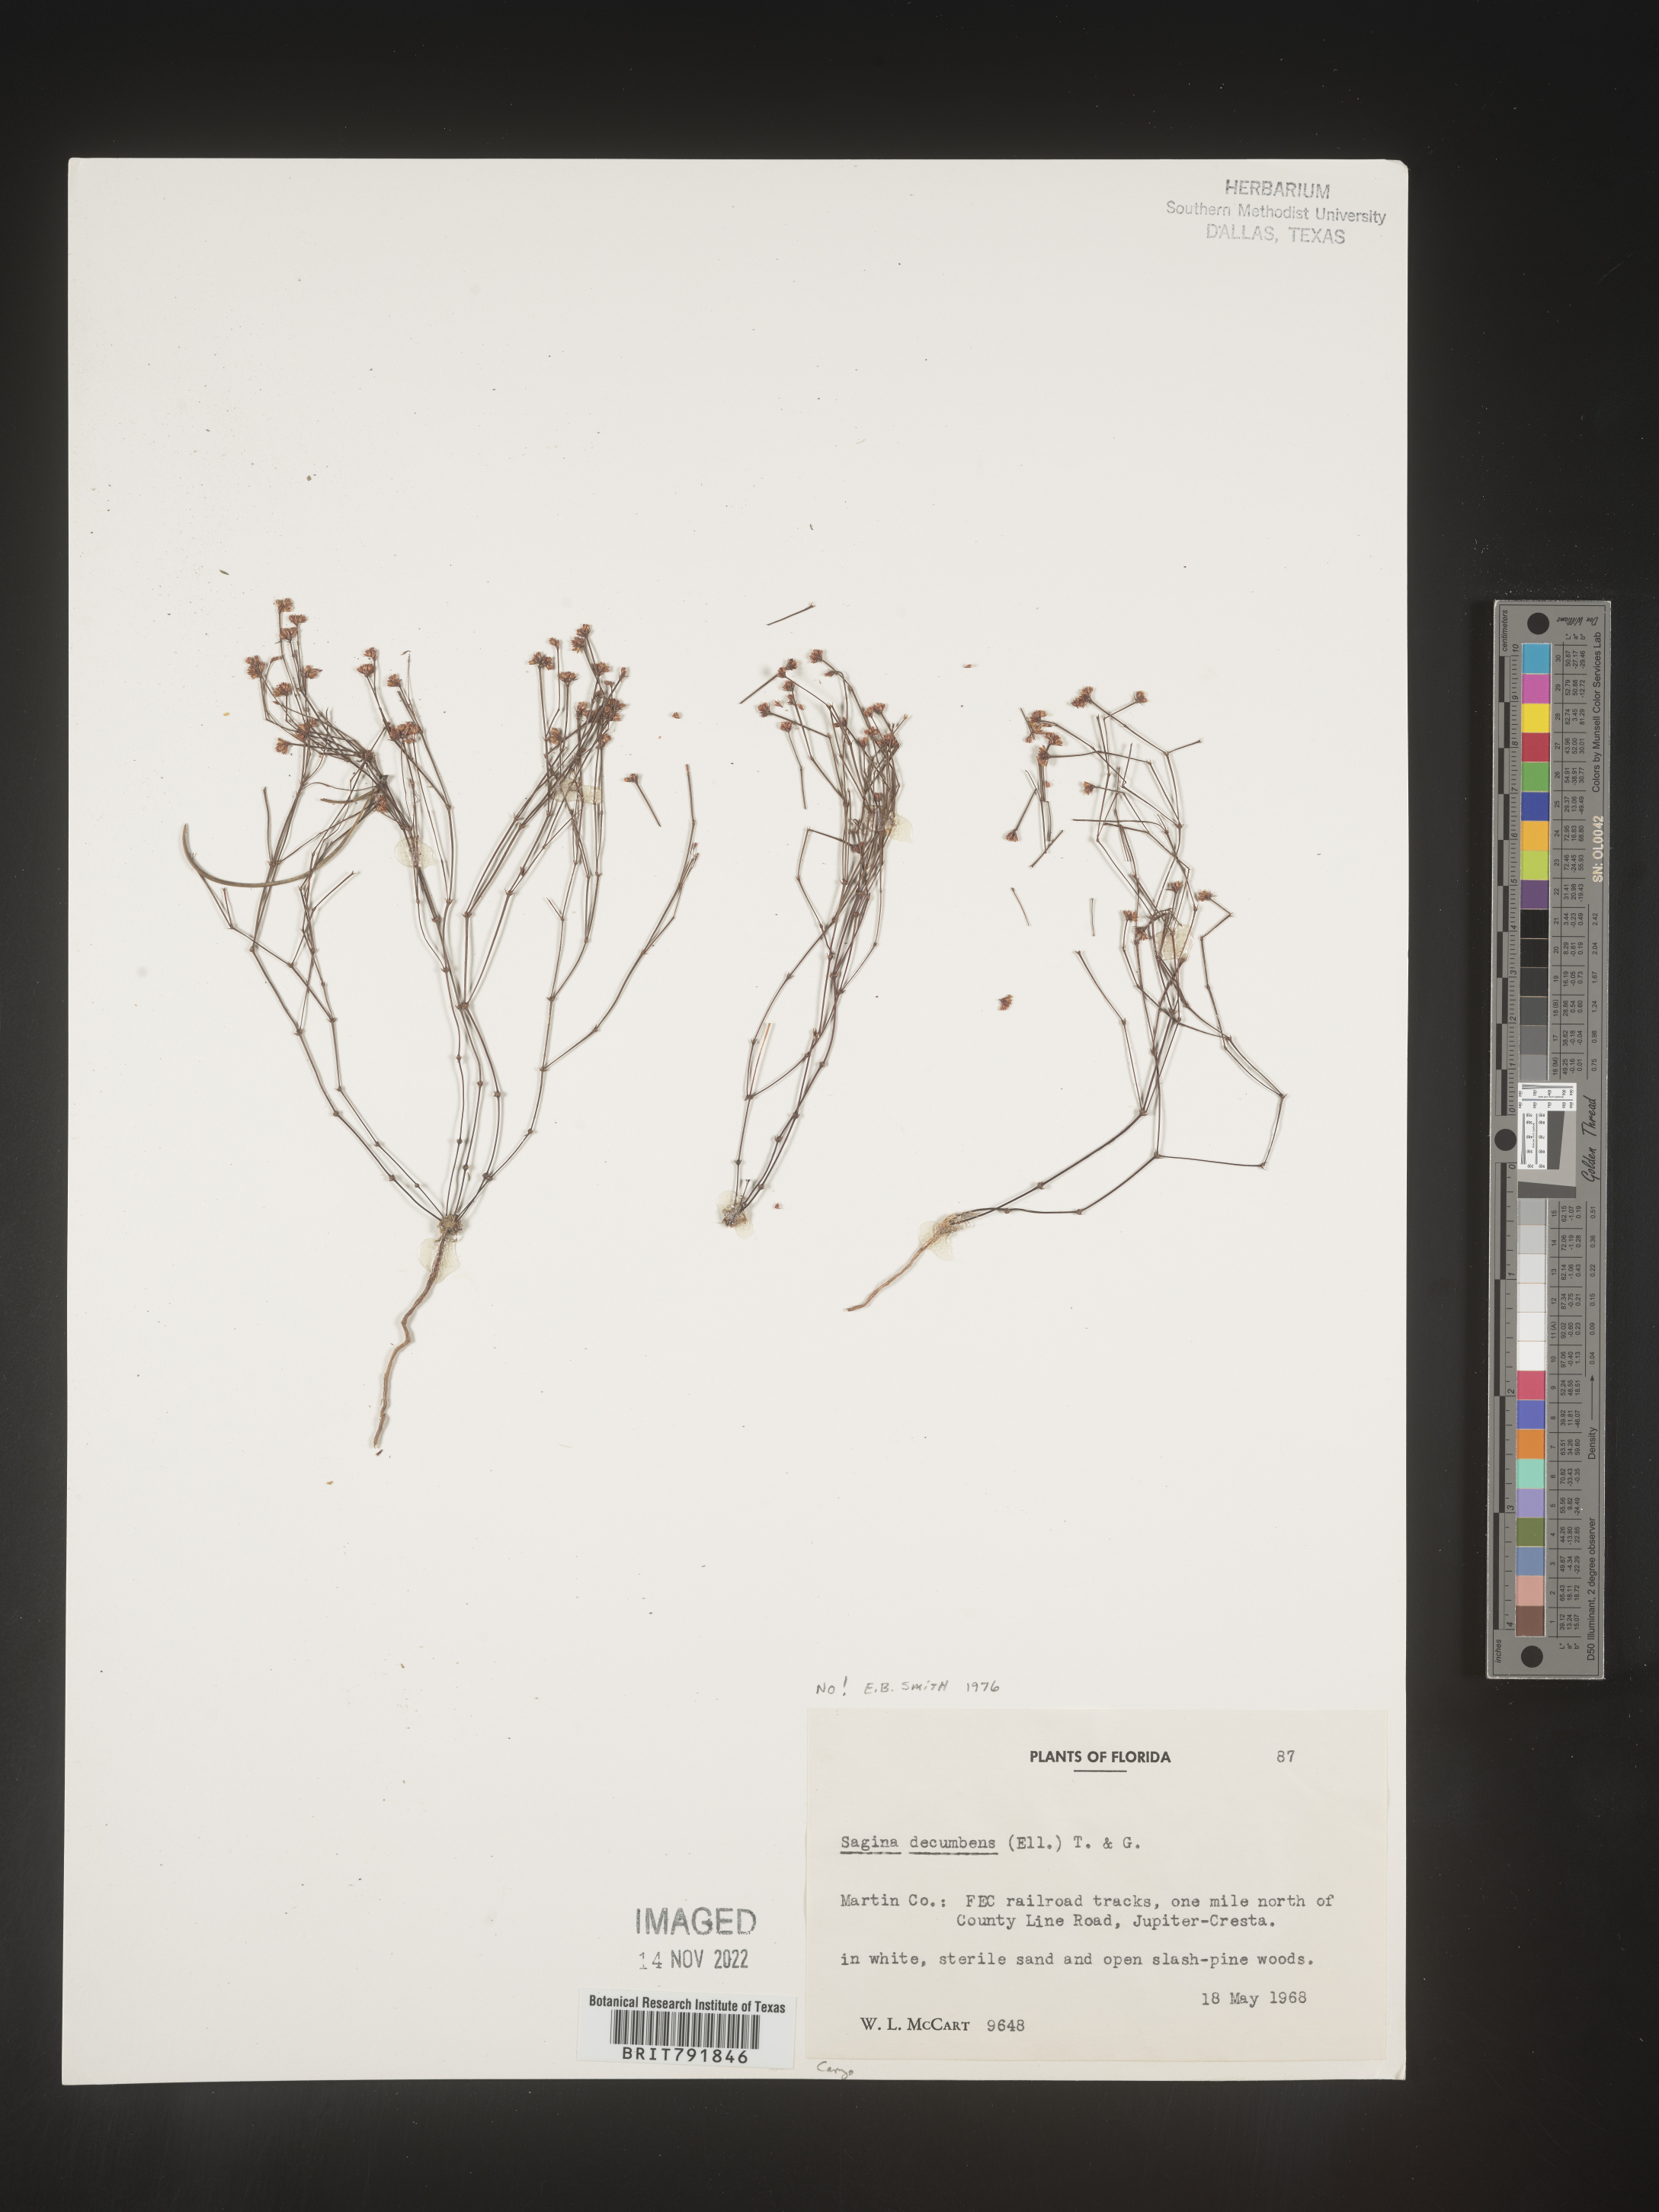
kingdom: Plantae
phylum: Tracheophyta
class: Magnoliopsida
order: Caryophyllales
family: Caryophyllaceae
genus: Sagina
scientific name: Sagina
